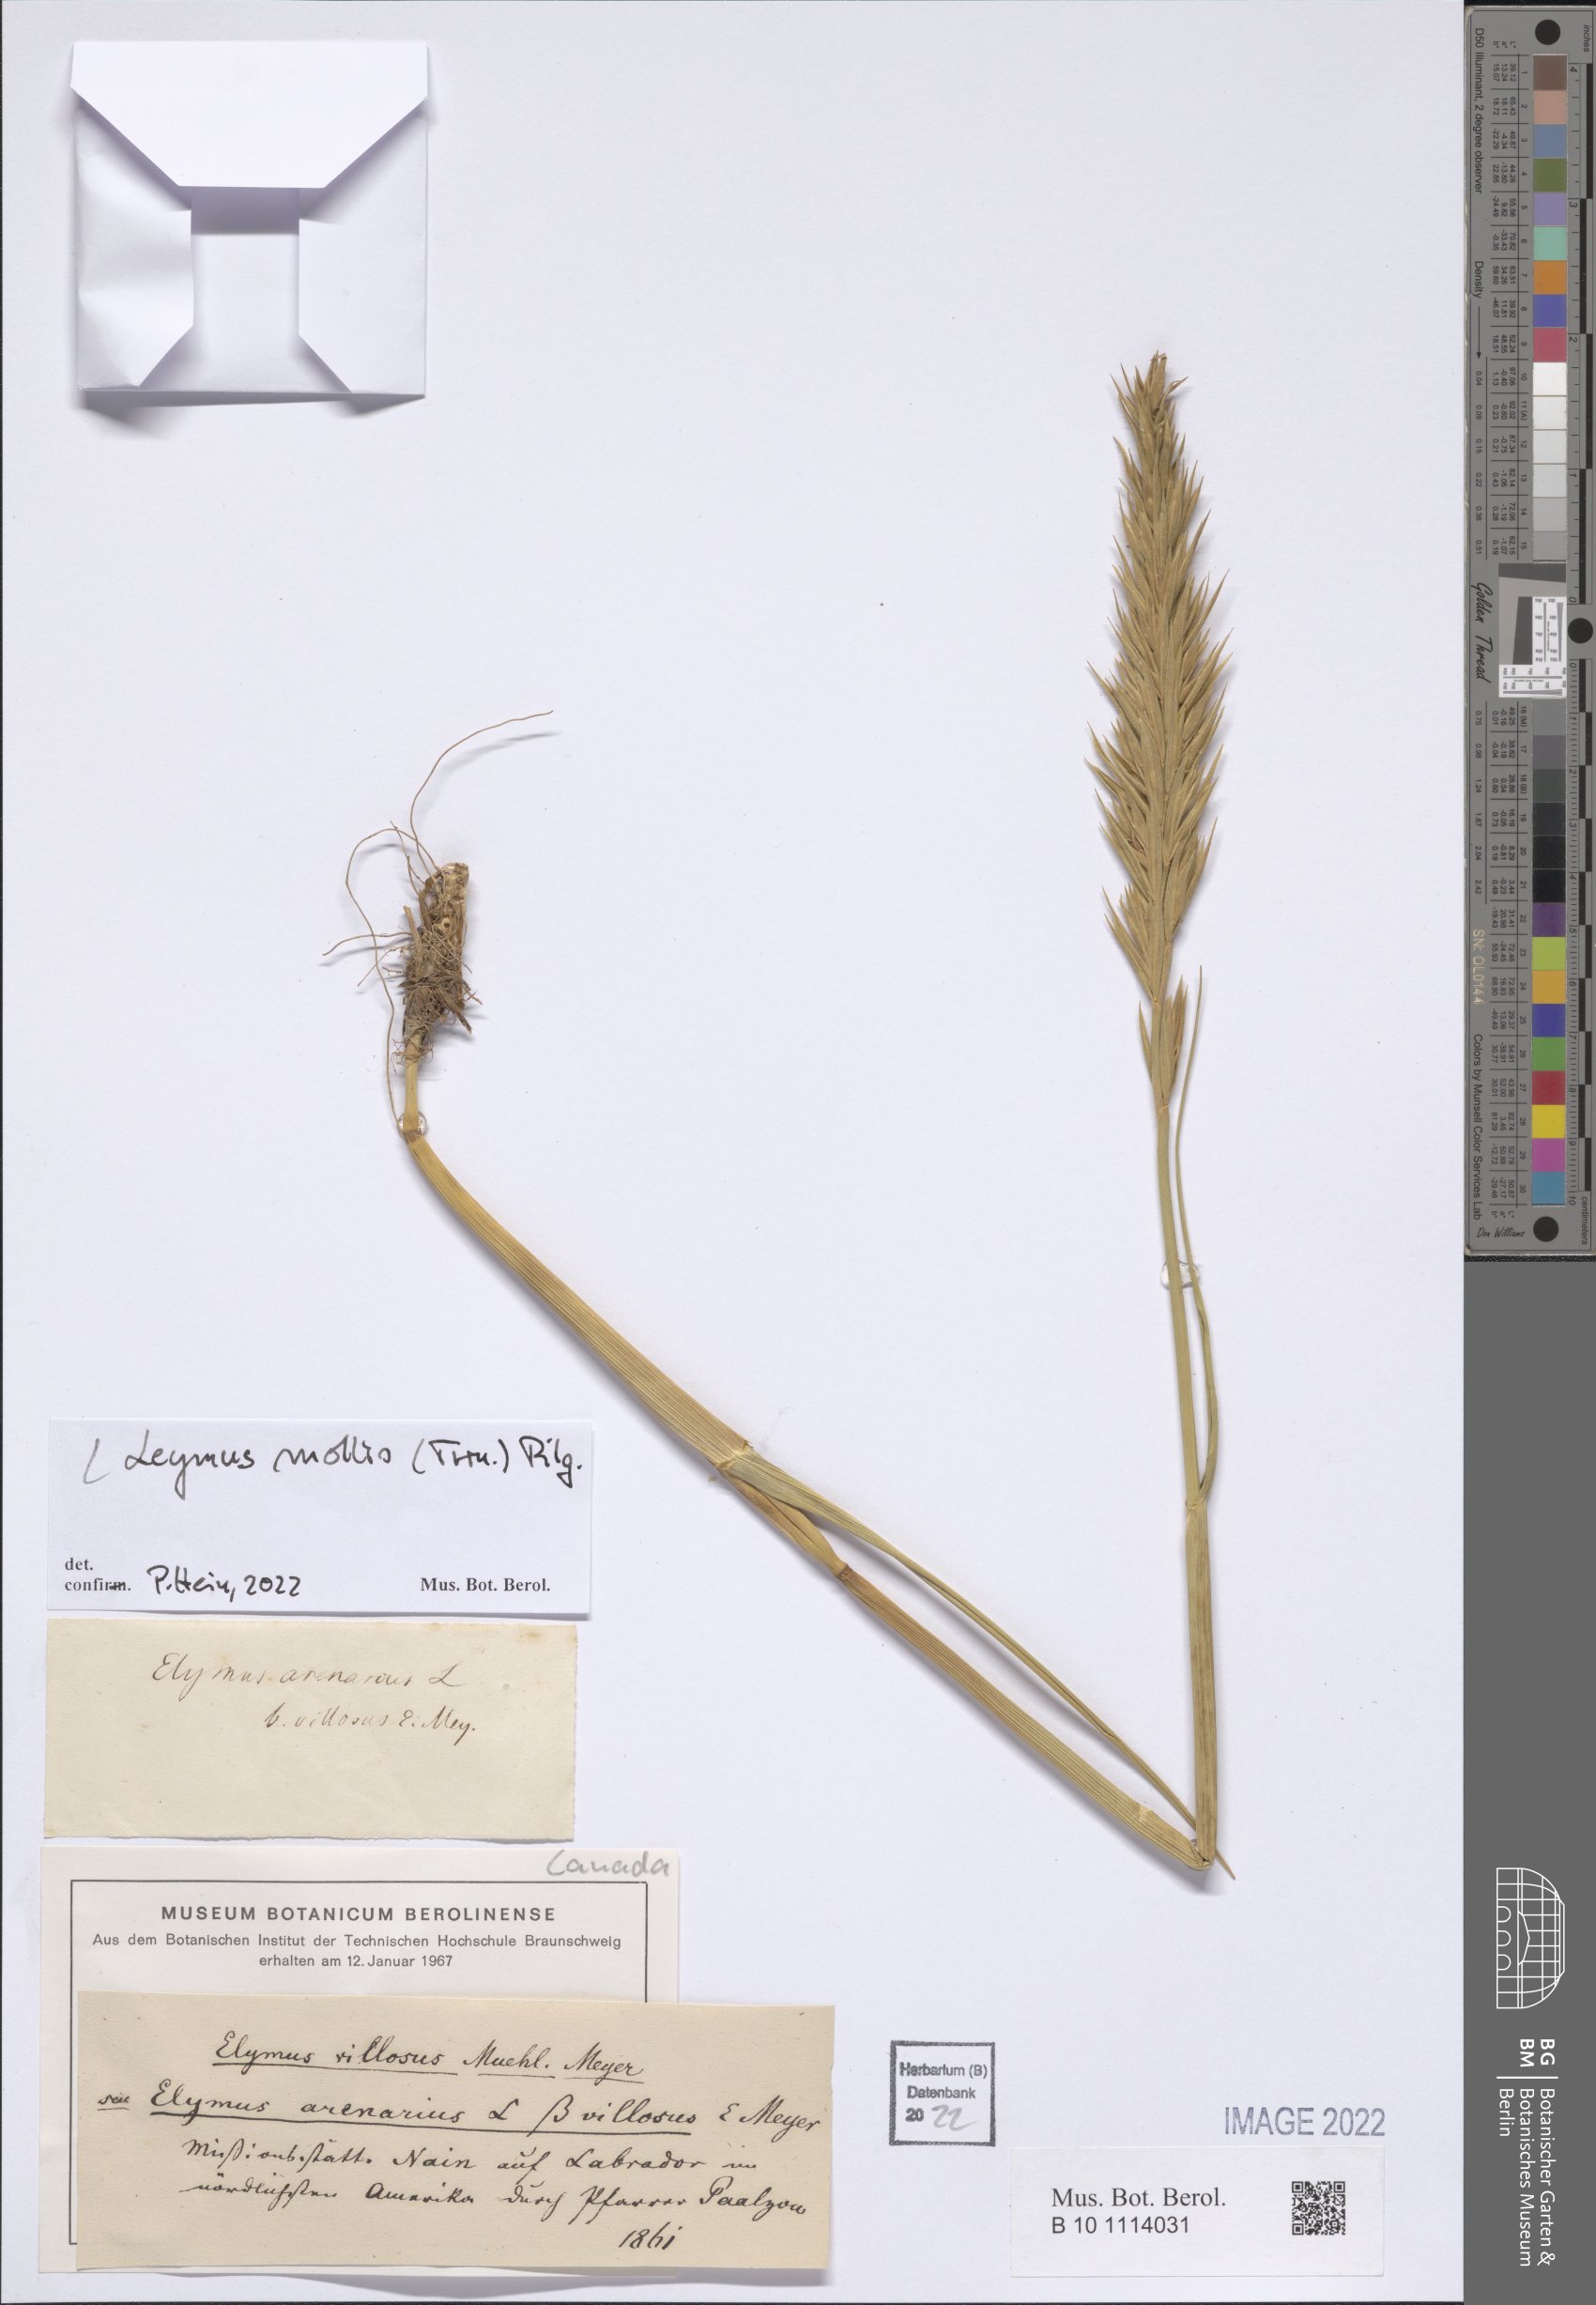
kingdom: Plantae
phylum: Tracheophyta
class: Liliopsida
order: Poales
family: Poaceae
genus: Leymus
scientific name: Leymus mollis
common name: American dune grass
